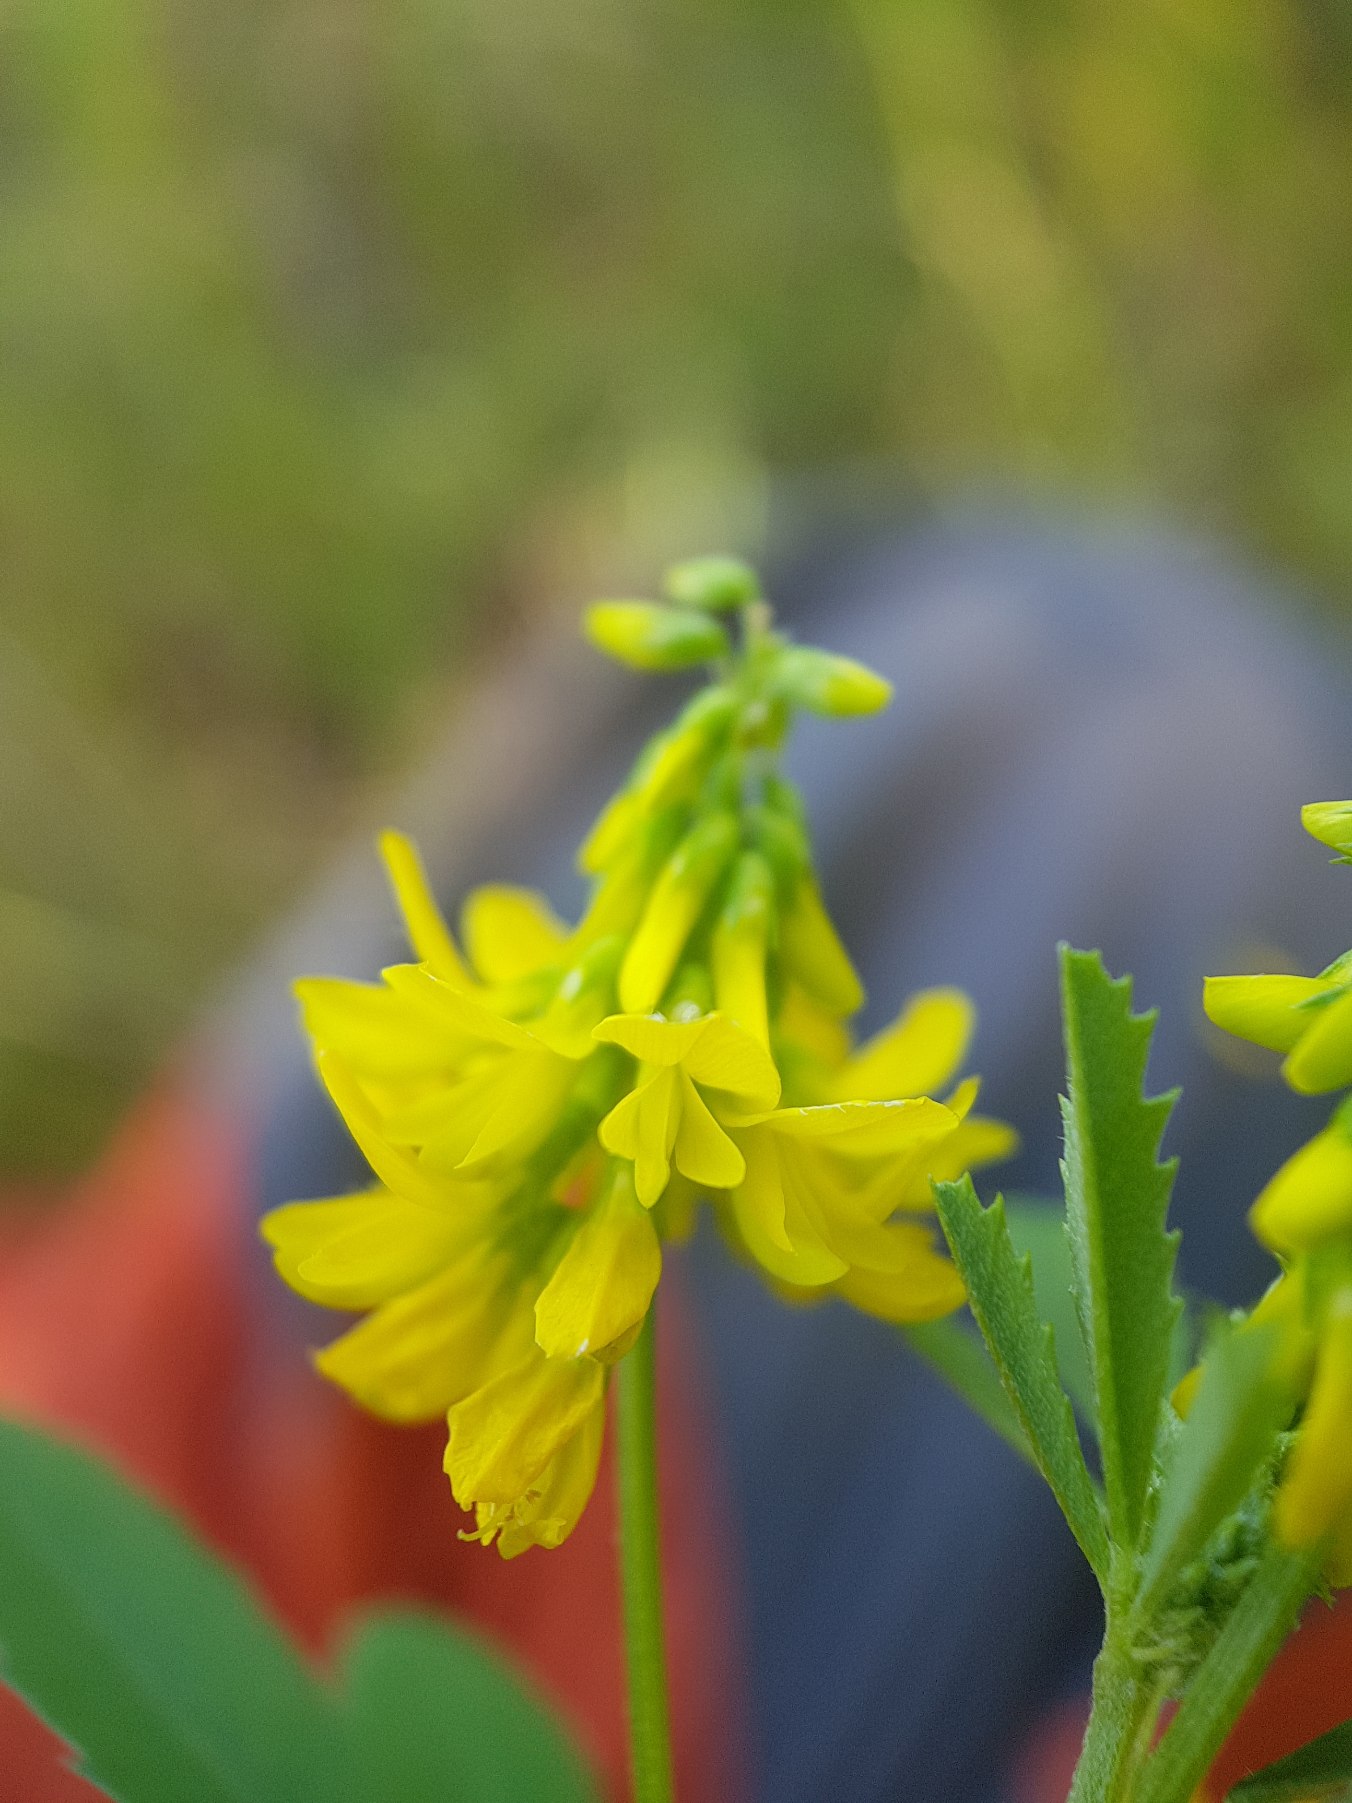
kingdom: Plantae
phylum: Tracheophyta
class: Magnoliopsida
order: Fabales
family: Fabaceae
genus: Melilotus
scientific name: Melilotus altissimus
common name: Høj stenkløver
